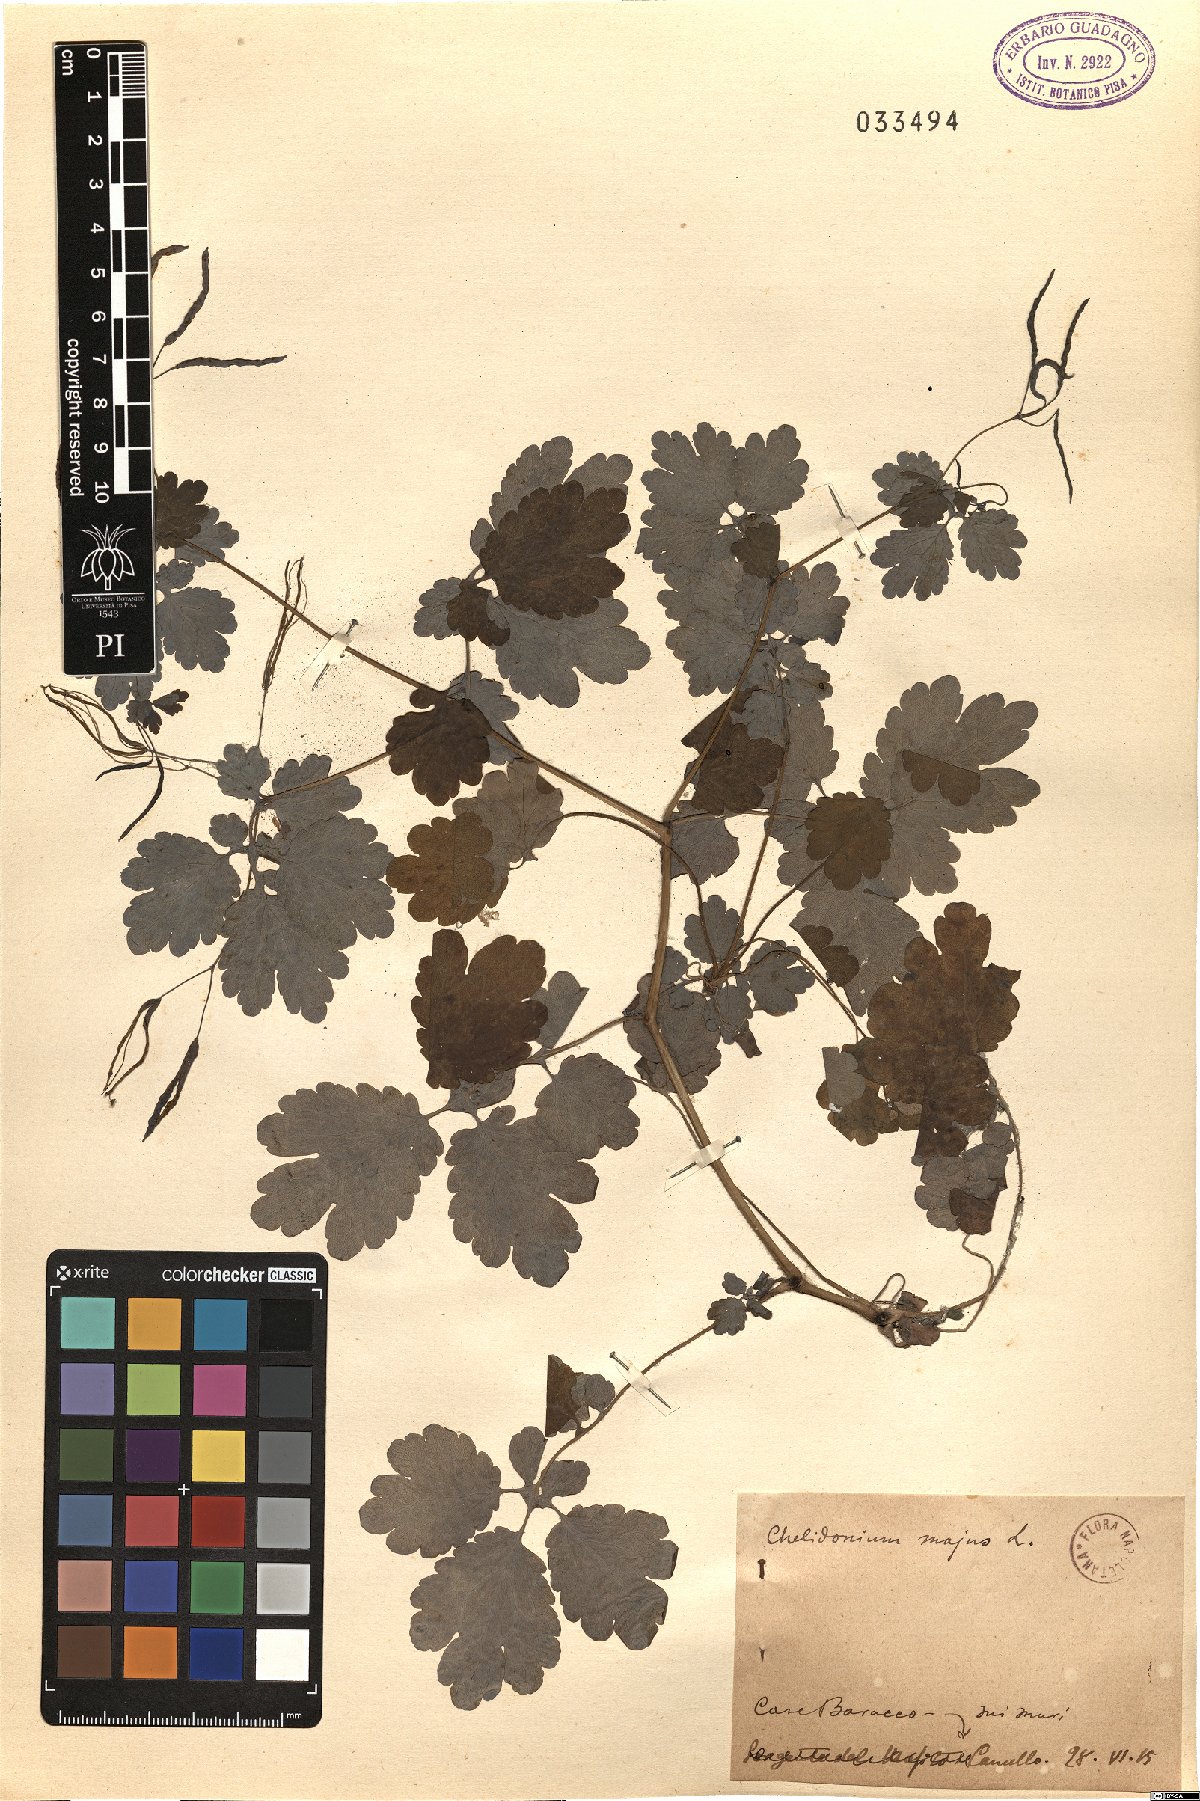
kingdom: Plantae
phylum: Tracheophyta
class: Magnoliopsida
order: Ranunculales
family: Papaveraceae
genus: Chelidonium
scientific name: Chelidonium majus
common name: Greater celandine
